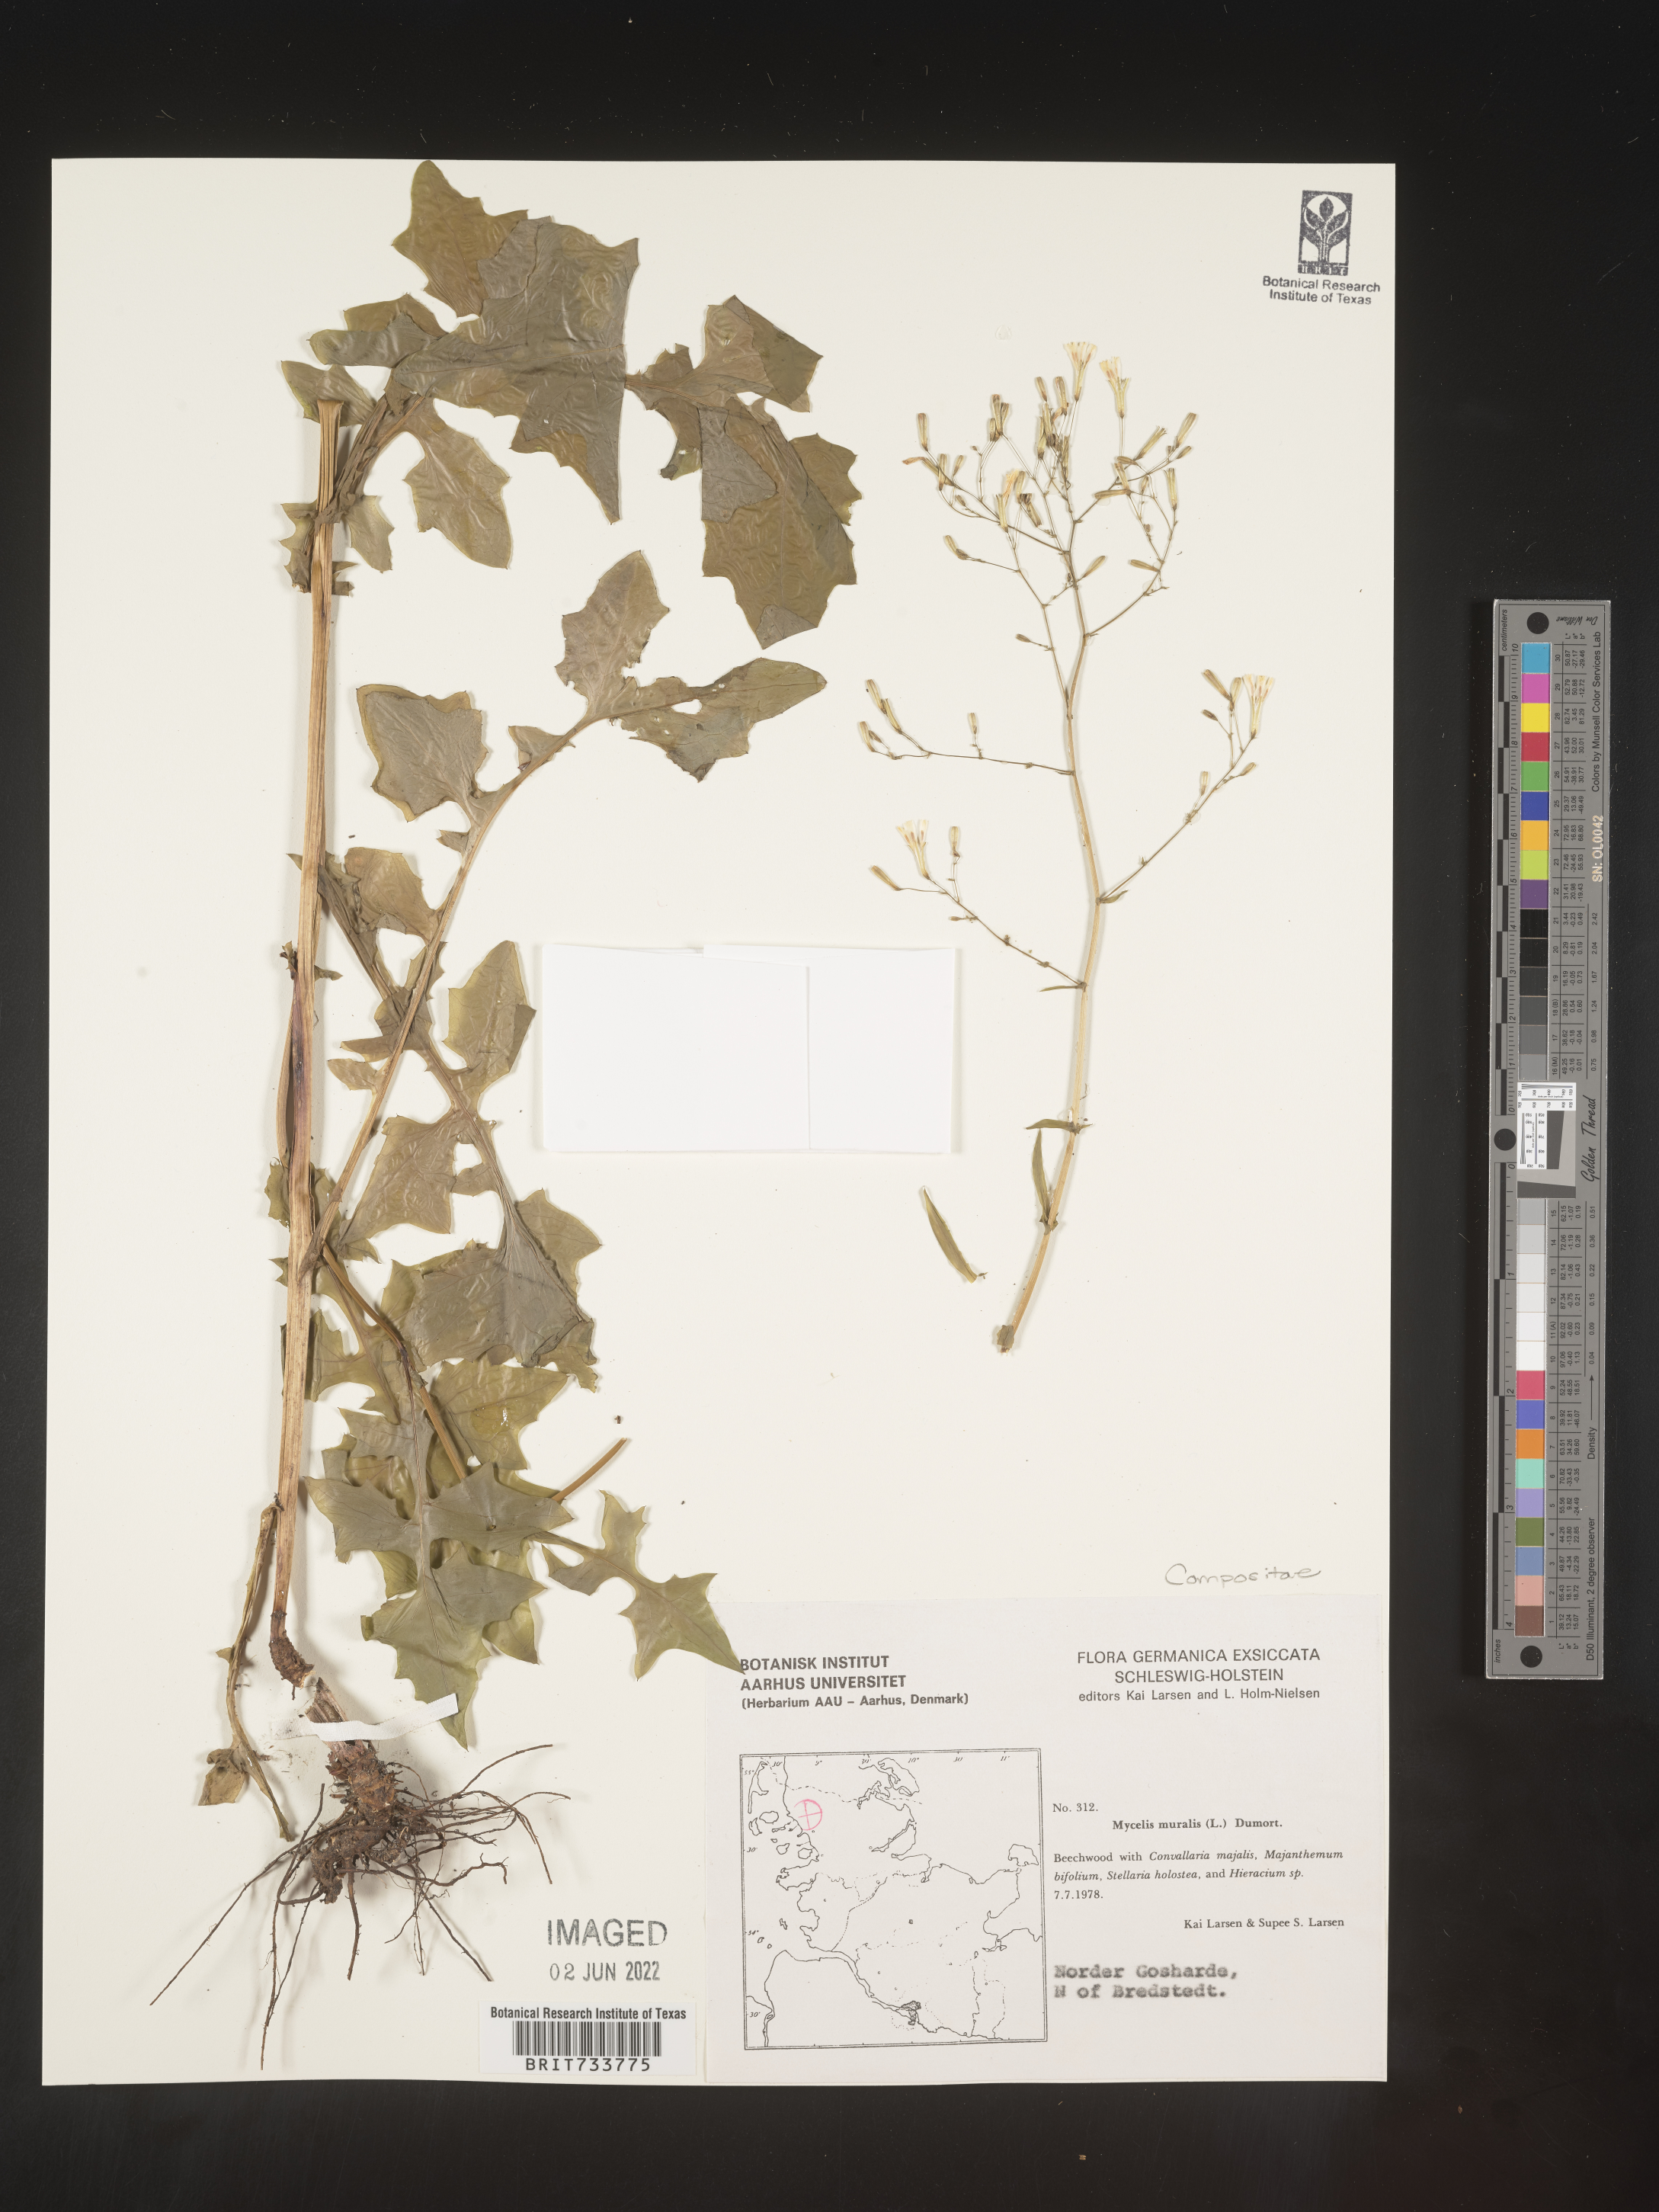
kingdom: Plantae
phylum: Tracheophyta
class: Magnoliopsida
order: Asterales
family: Asteraceae
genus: Mycelis
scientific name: Mycelis
